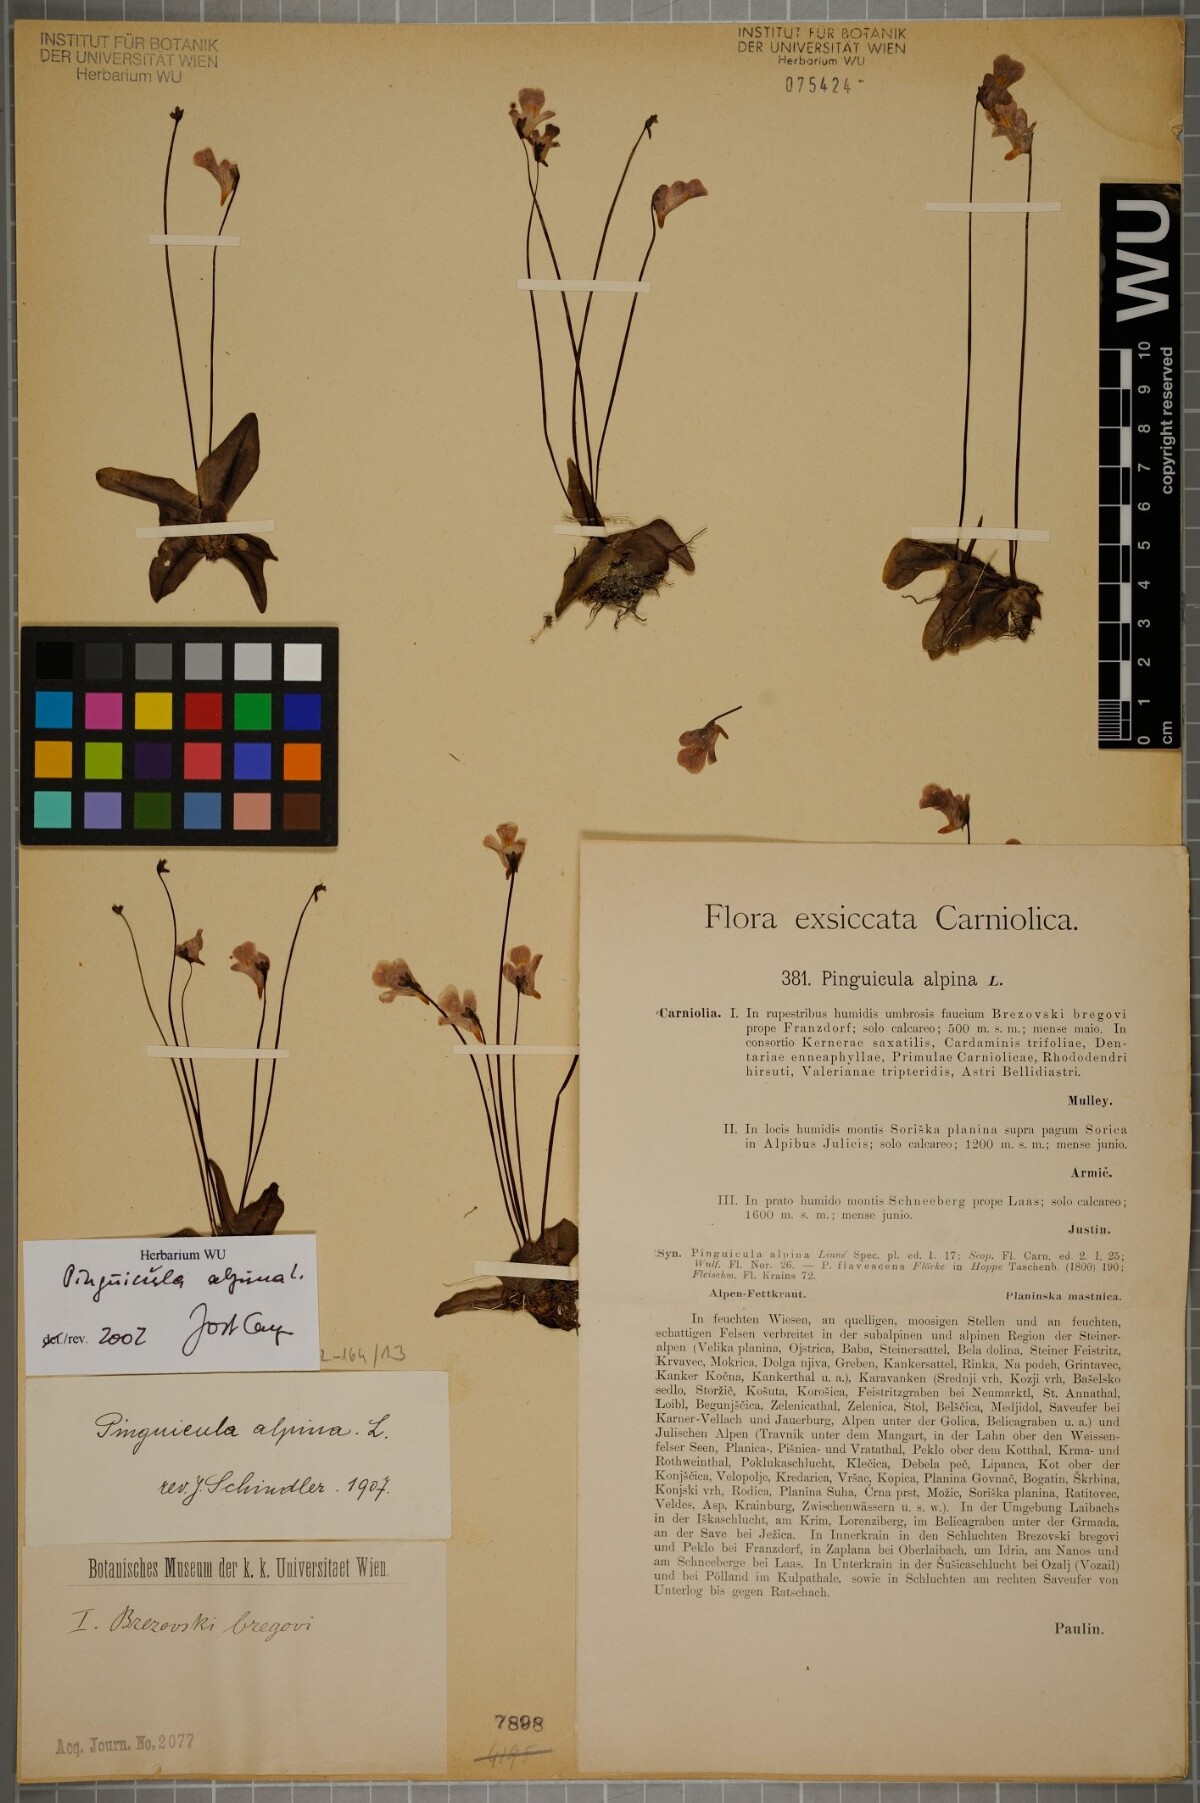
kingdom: Plantae
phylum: Tracheophyta
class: Magnoliopsida
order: Lamiales
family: Lentibulariaceae
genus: Pinguicula
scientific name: Pinguicula alpina
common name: Alpine butterwort
